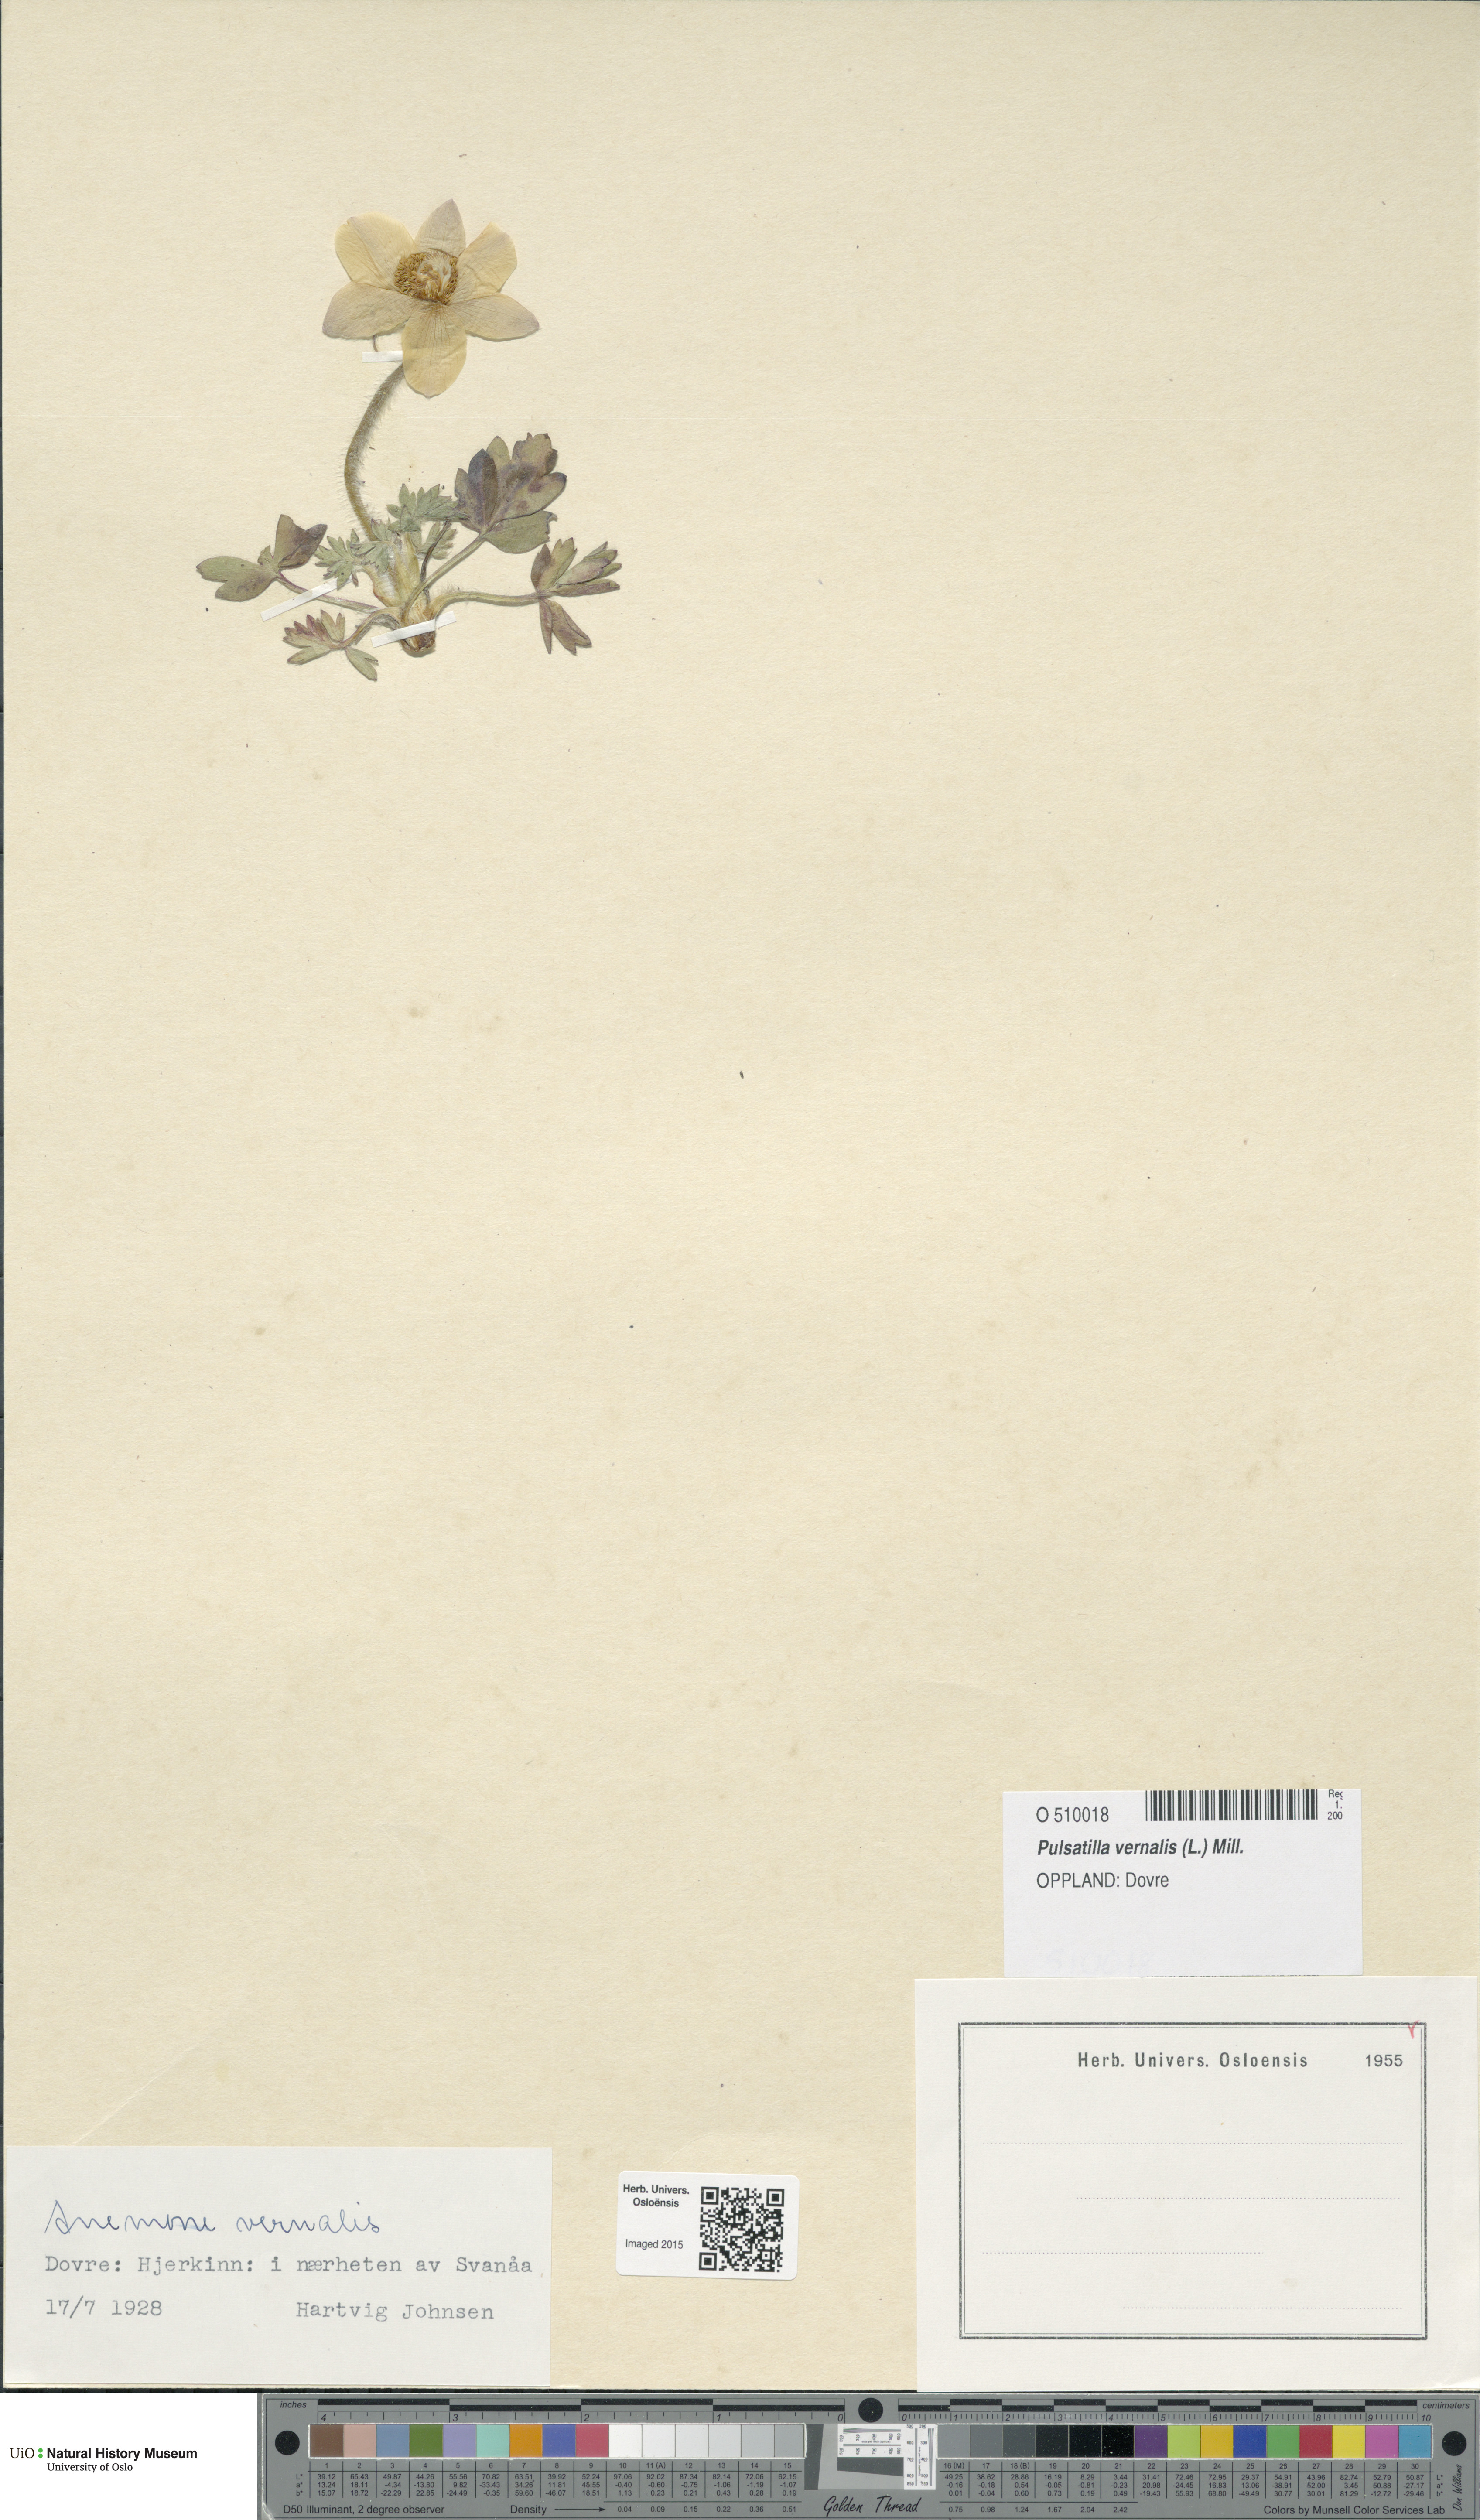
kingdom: Plantae
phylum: Tracheophyta
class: Magnoliopsida
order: Ranunculales
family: Ranunculaceae
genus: Pulsatilla
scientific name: Pulsatilla vernalis
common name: Spring pasque flower
